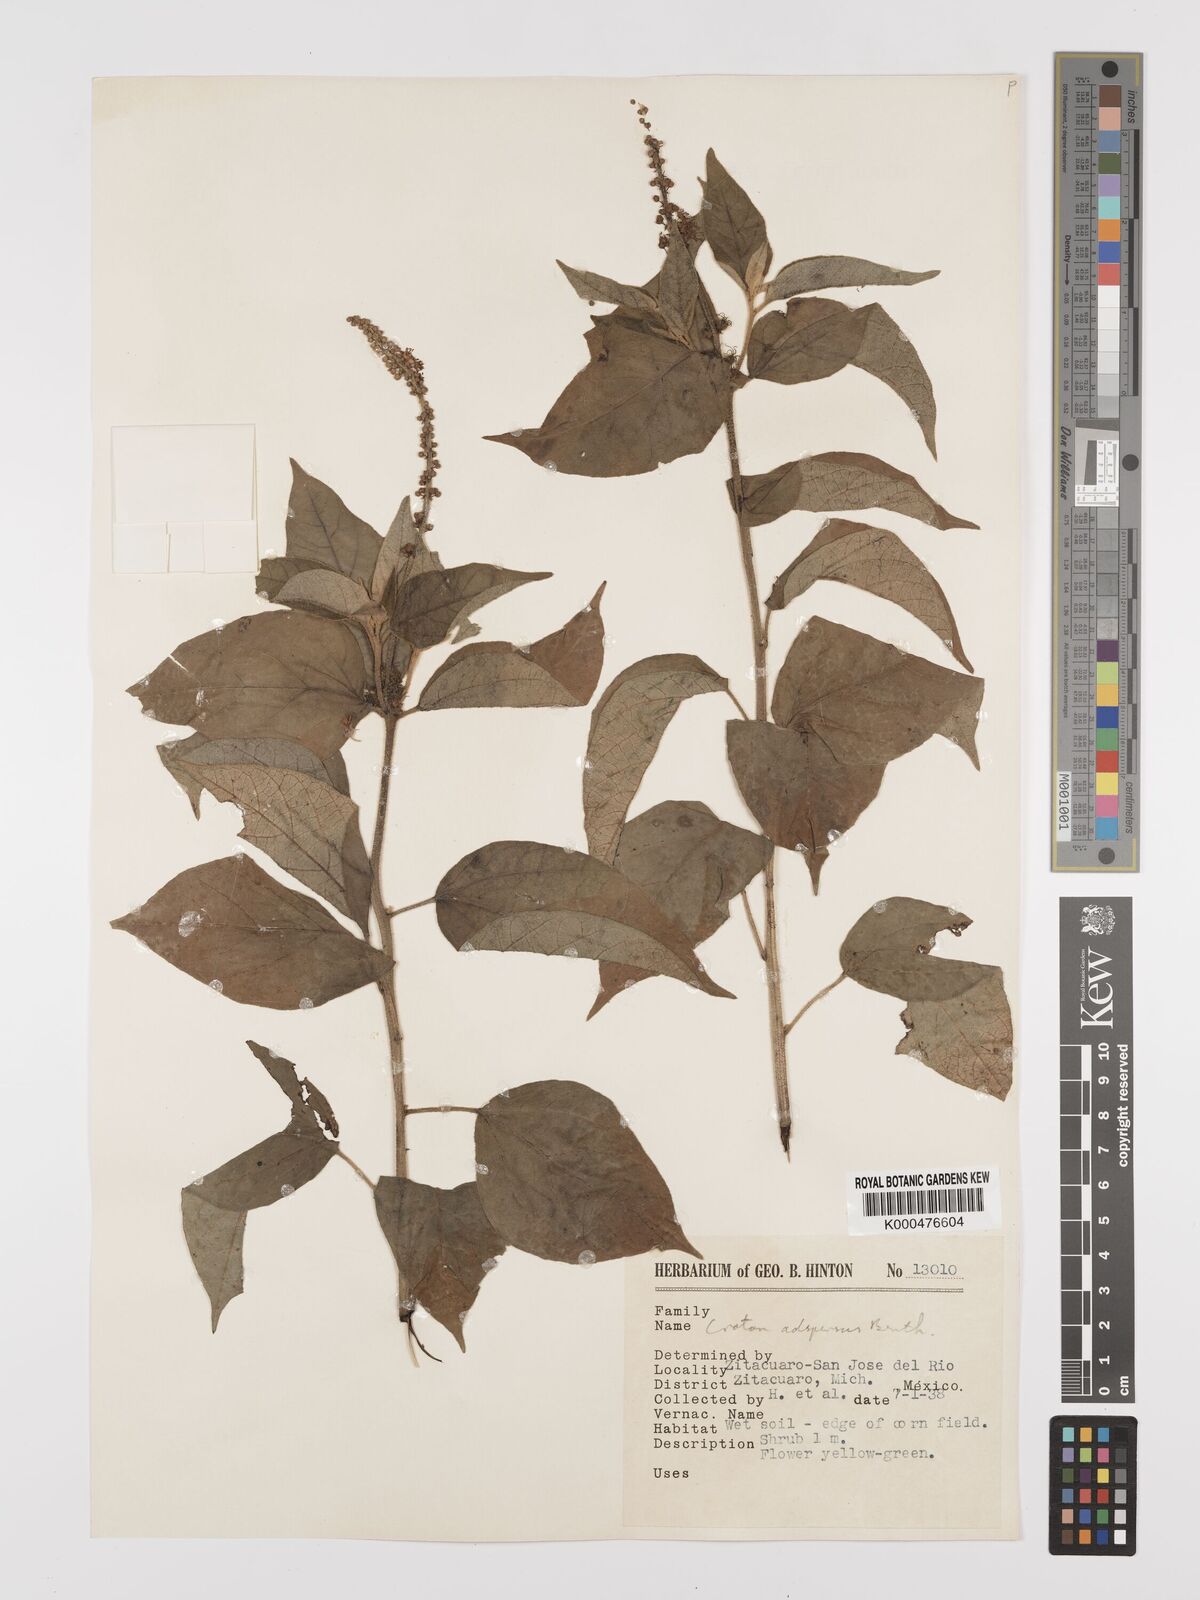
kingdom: Plantae
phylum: Tracheophyta
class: Magnoliopsida
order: Malpighiales
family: Euphorbiaceae
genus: Croton
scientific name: Croton adspersus
